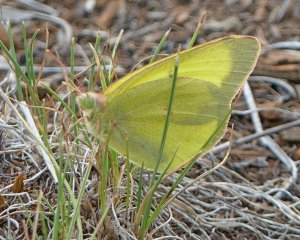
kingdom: Animalia
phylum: Arthropoda
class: Insecta
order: Lepidoptera
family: Pieridae
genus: Colias
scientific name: Colias alexandra
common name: Queen Alexandra's Sulphur
